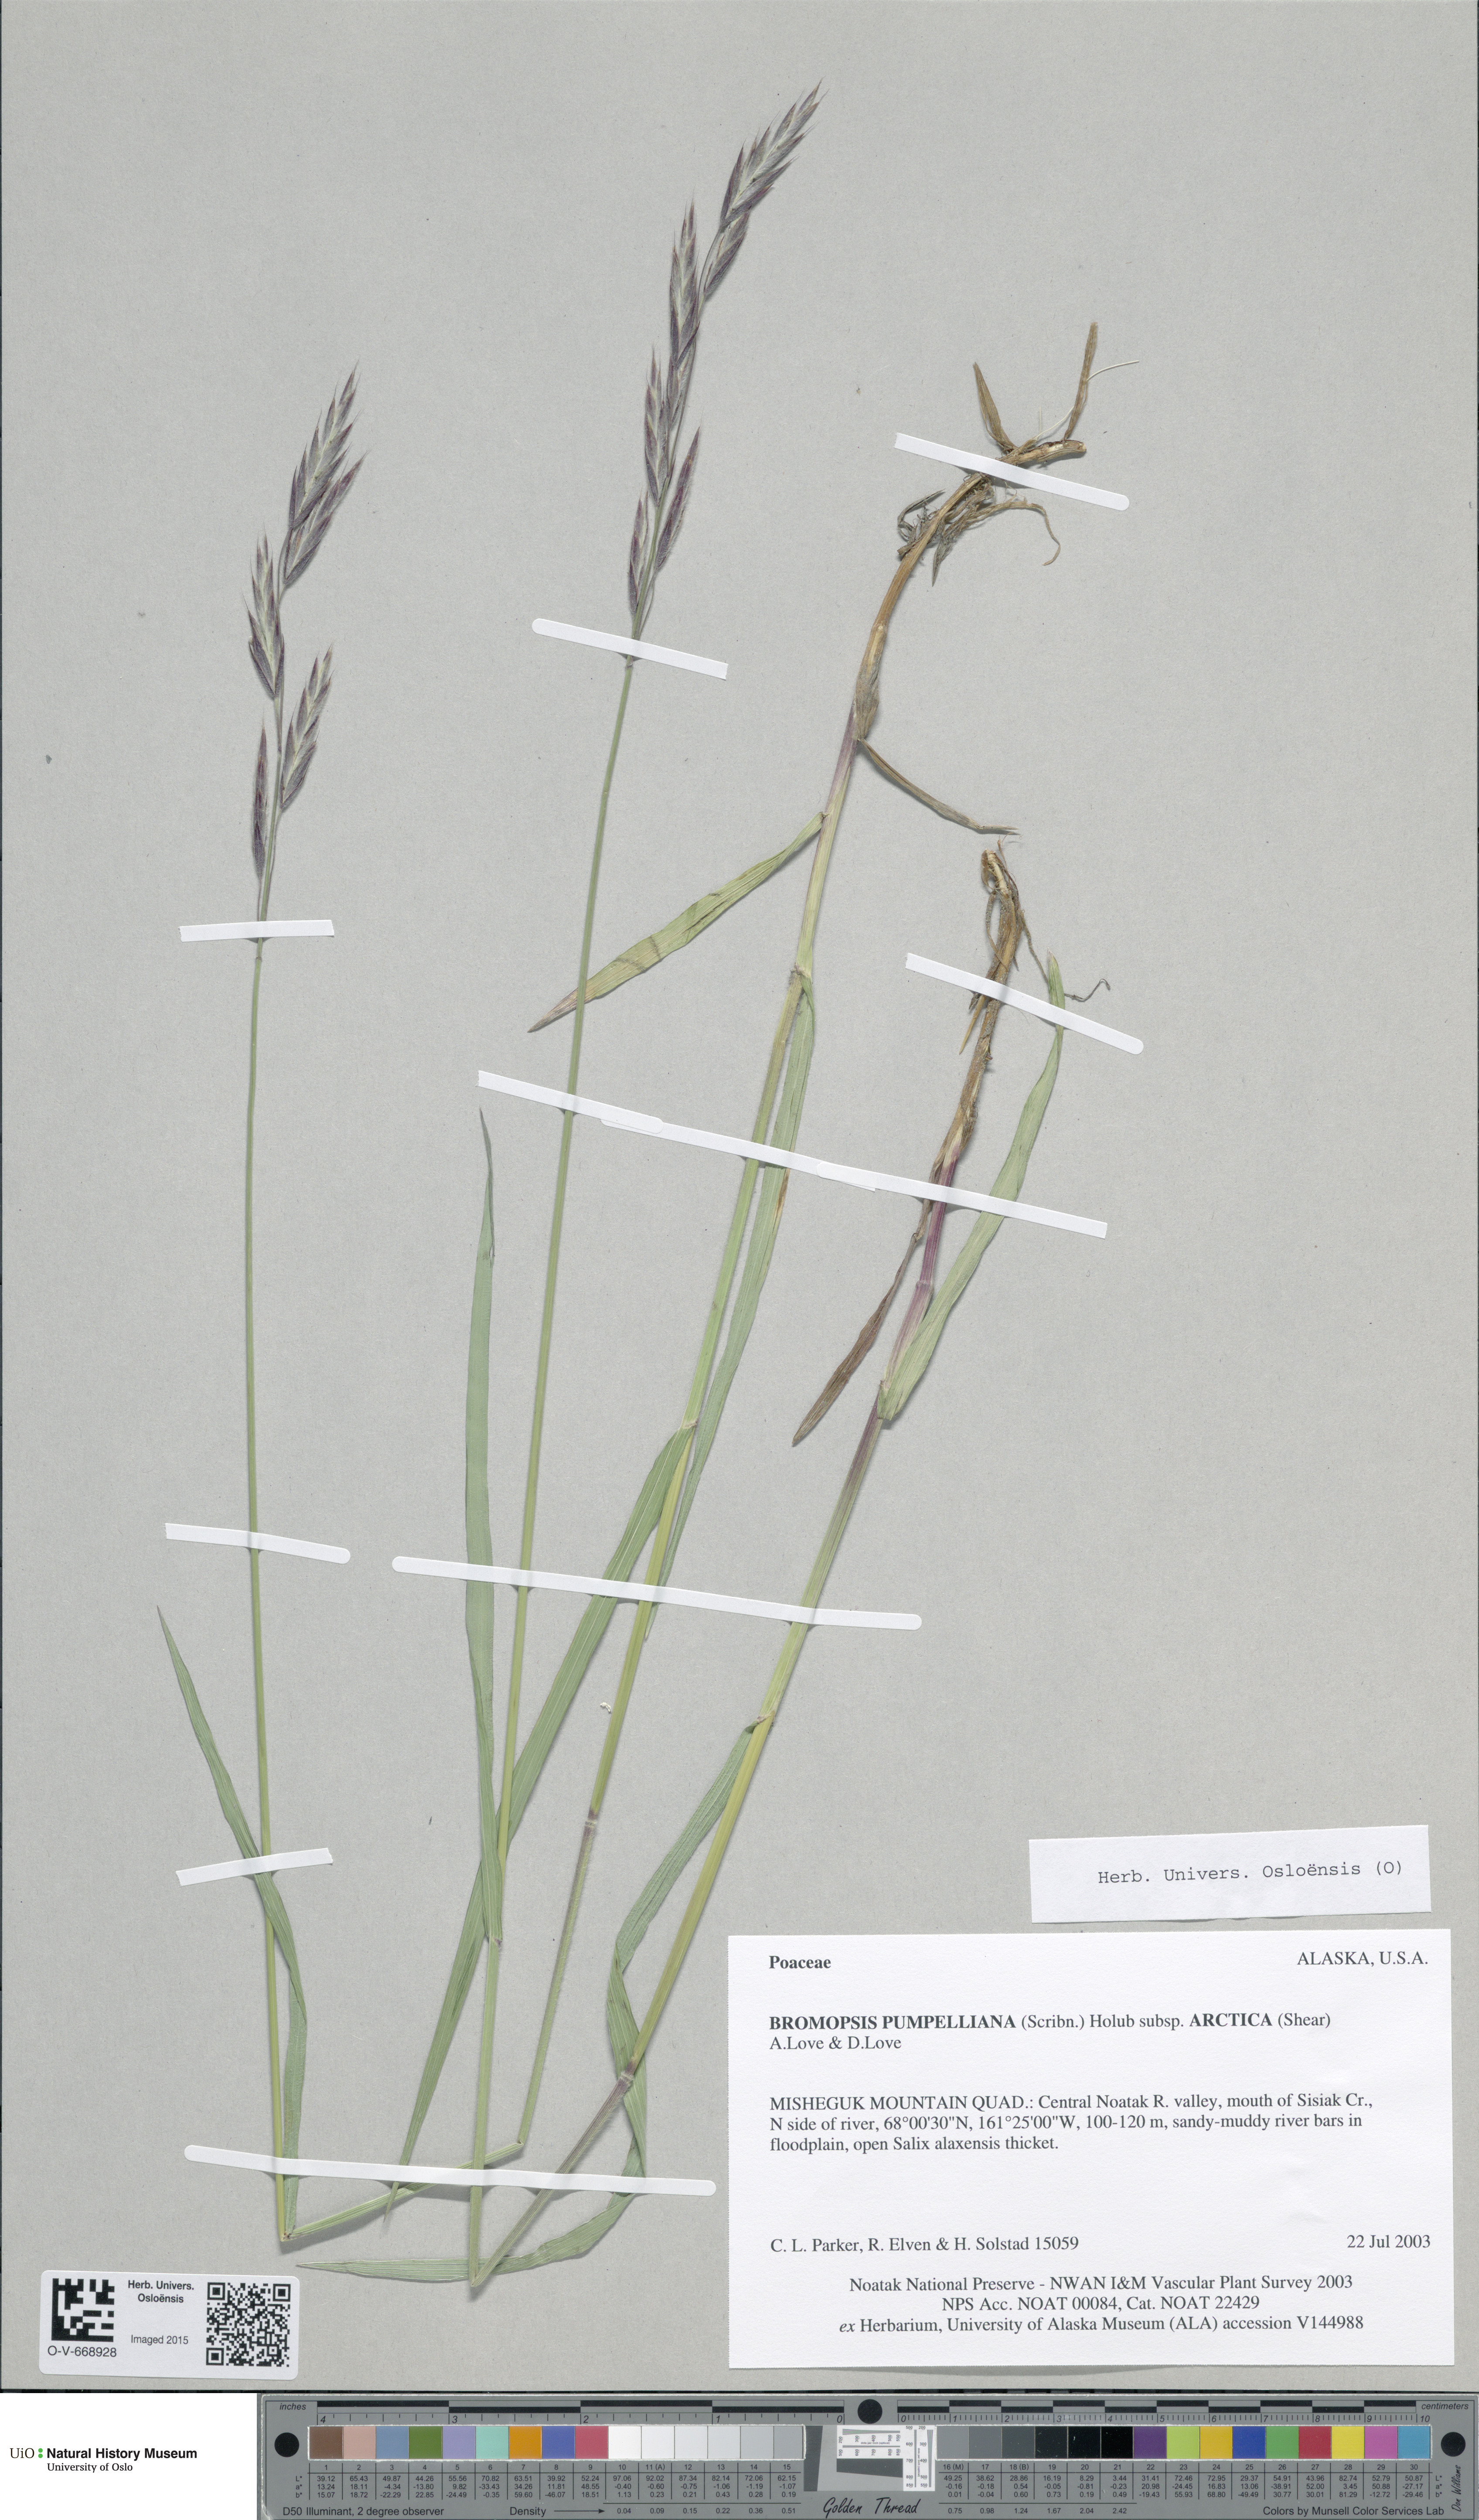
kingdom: Plantae
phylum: Tracheophyta
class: Liliopsida
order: Poales
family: Poaceae
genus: Bromus
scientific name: Bromus pumpellianus
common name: Pumpelly's brome
